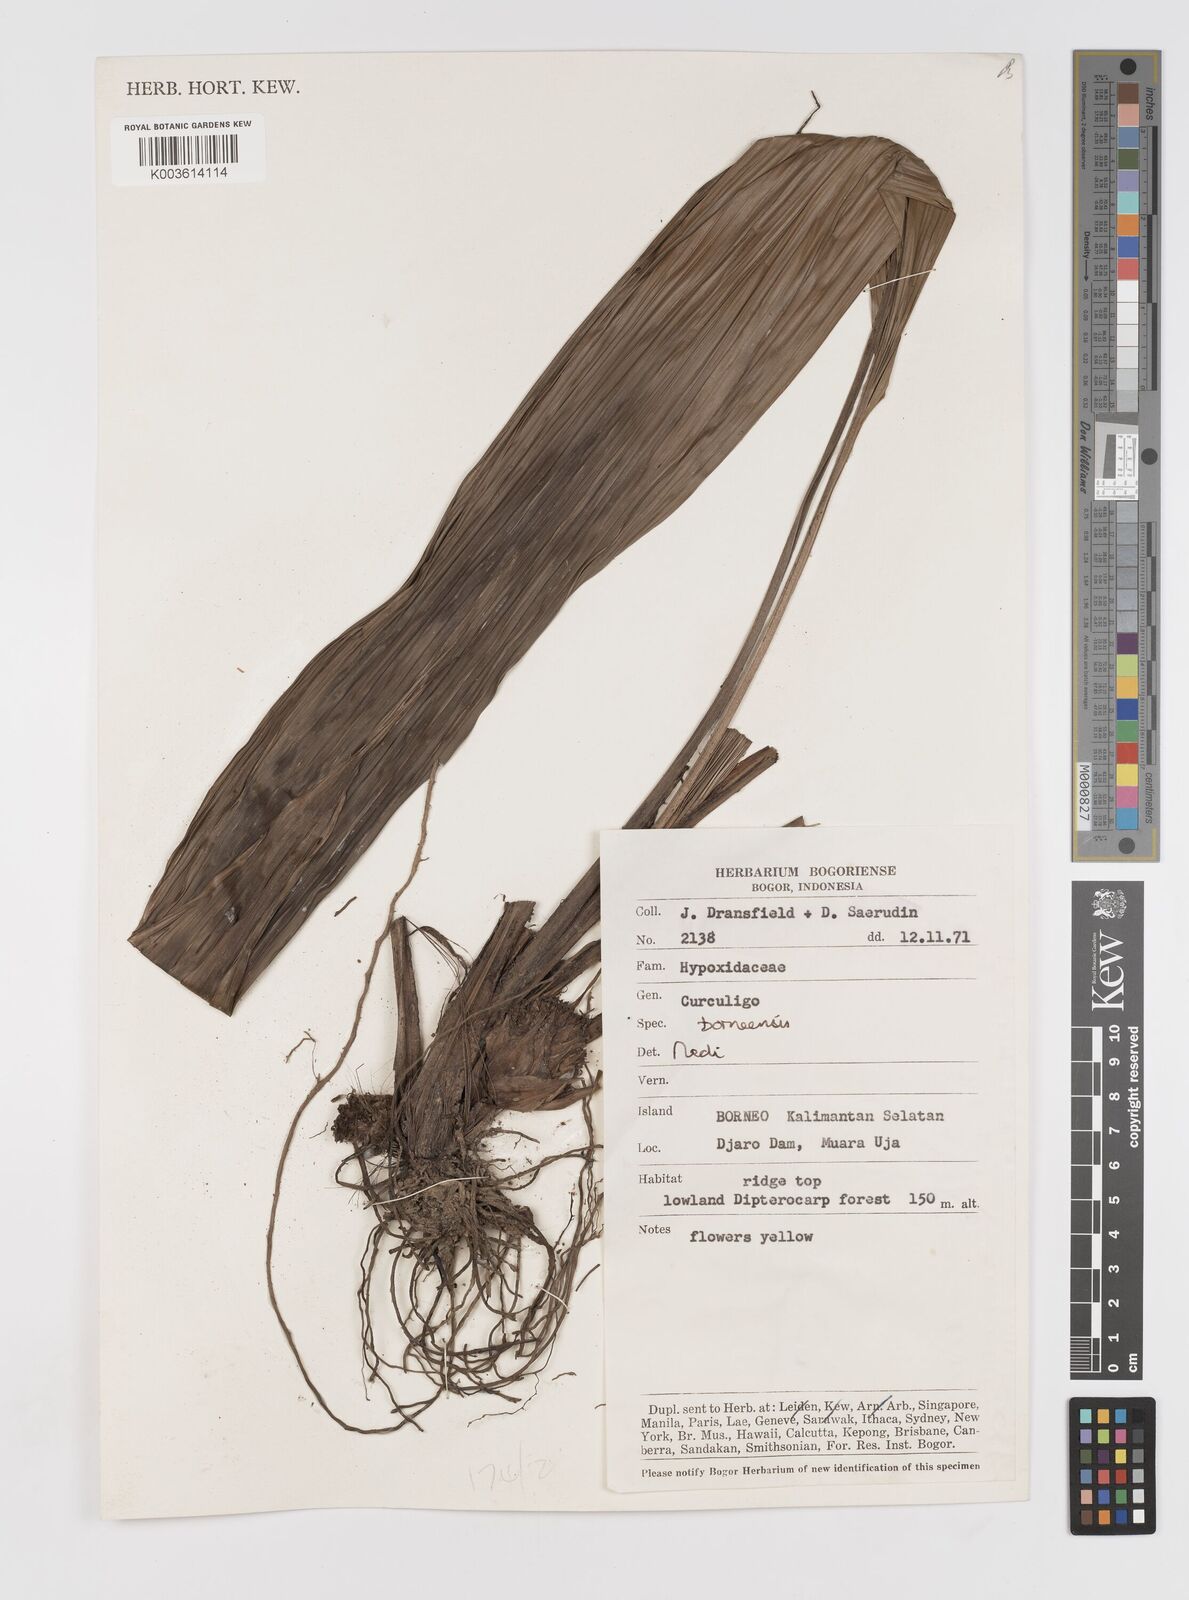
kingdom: Plantae
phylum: Tracheophyta
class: Liliopsida
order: Asparagales
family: Hypoxidaceae
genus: Curculigo
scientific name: Curculigo latifolia
